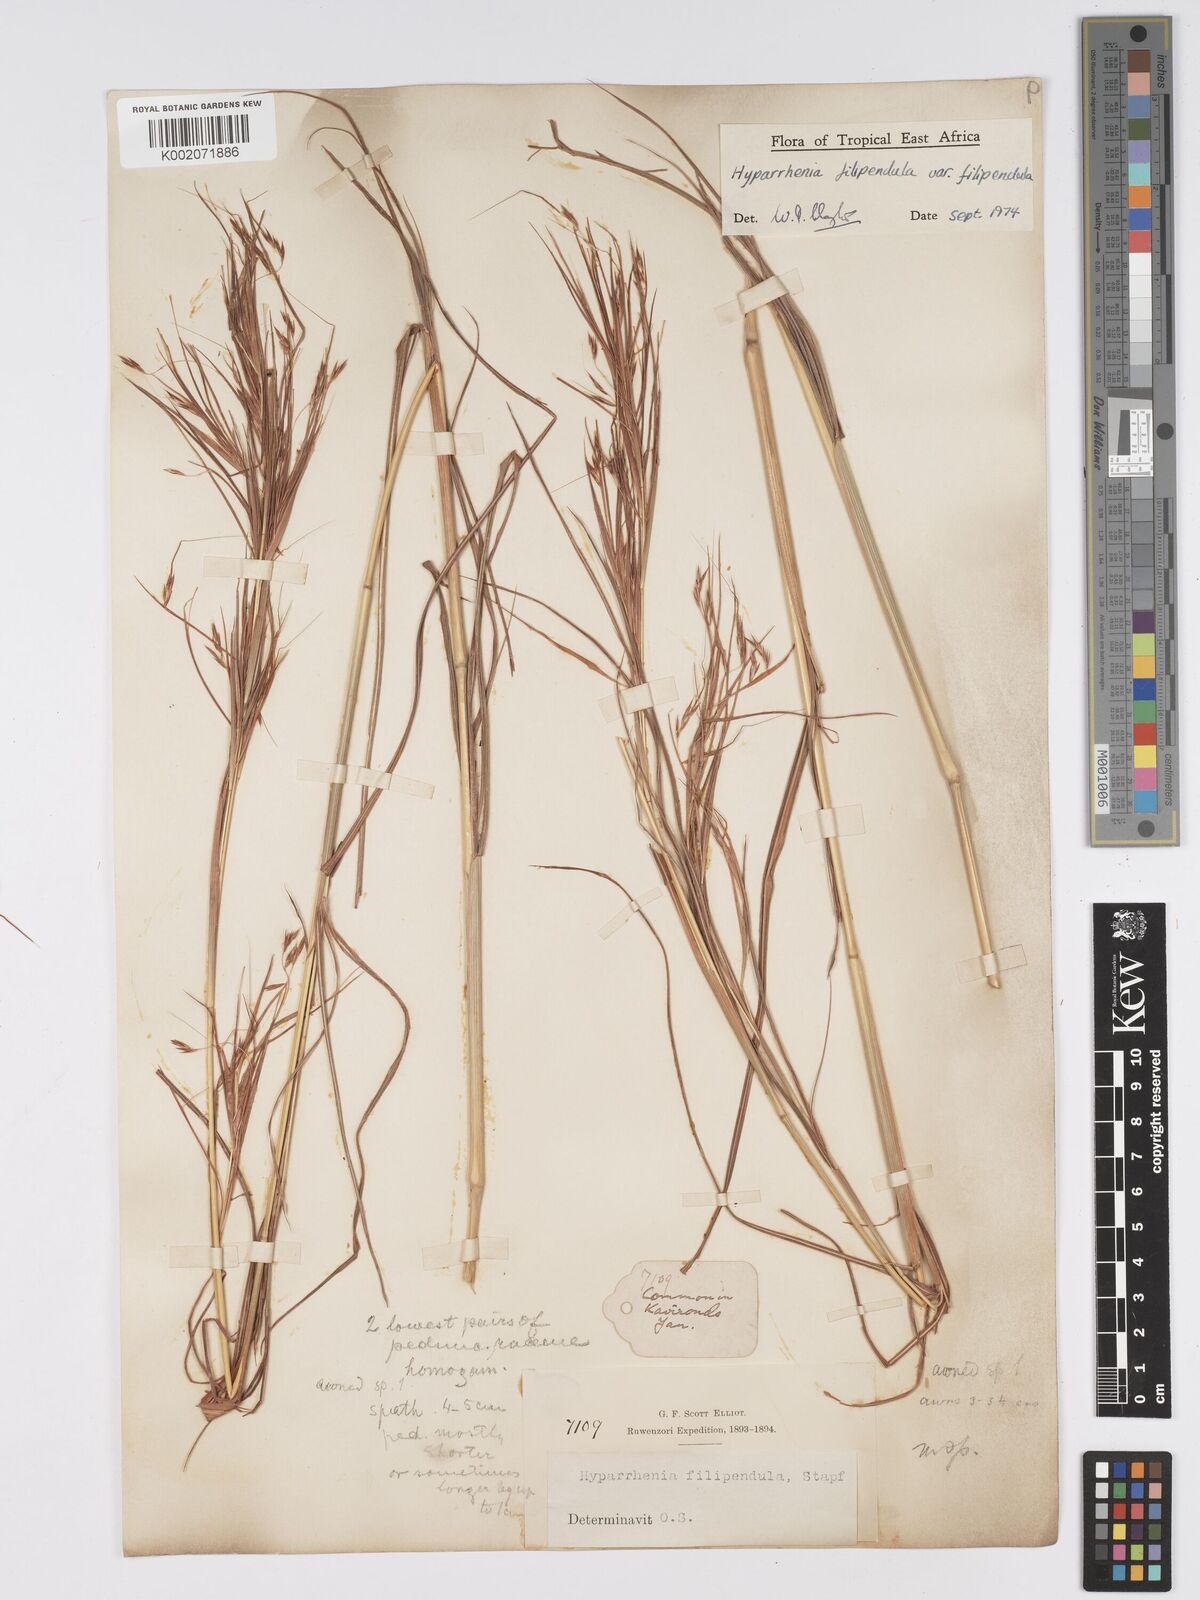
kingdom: Plantae
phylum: Tracheophyta
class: Liliopsida
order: Poales
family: Poaceae
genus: Hyparrhenia
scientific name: Hyparrhenia filipendula
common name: Tambookie grass
